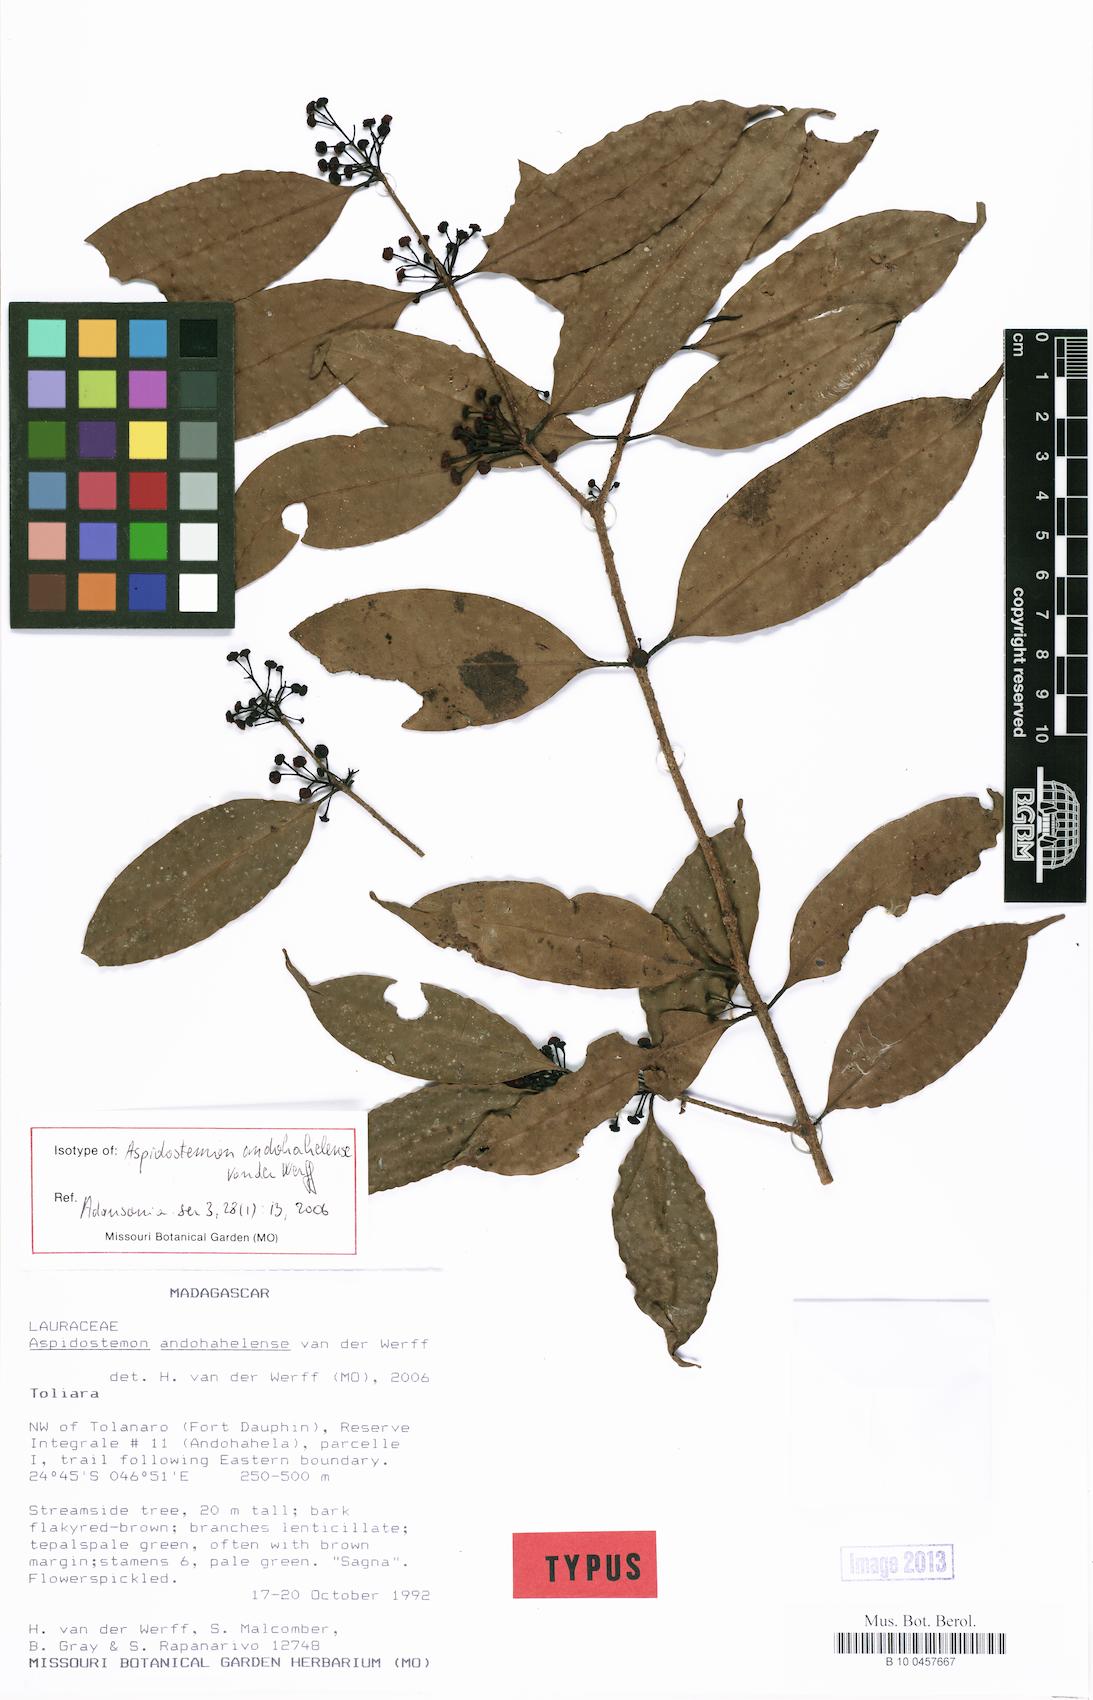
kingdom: Plantae
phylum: Tracheophyta
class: Magnoliopsida
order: Laurales
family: Lauraceae
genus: Aspidostemon
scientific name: Aspidostemon andohahelense
